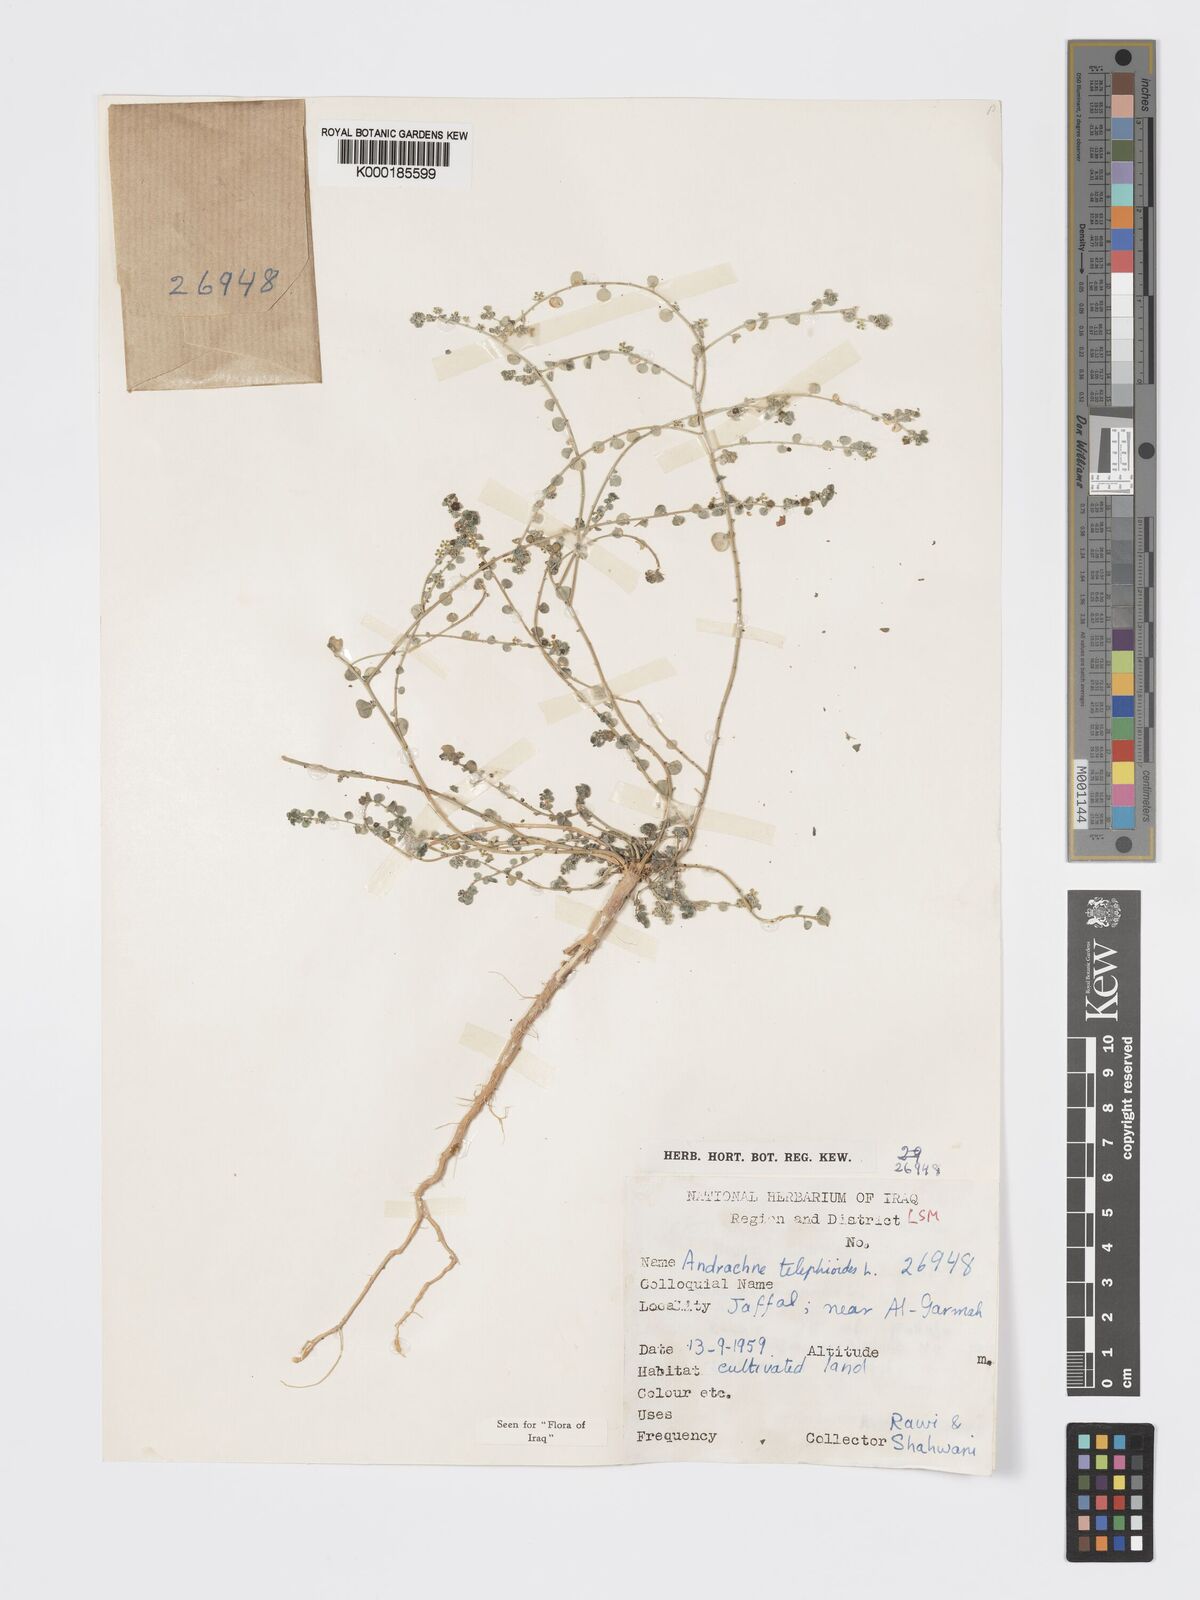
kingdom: Plantae
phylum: Tracheophyta
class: Magnoliopsida
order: Malpighiales
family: Phyllanthaceae
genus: Andrachne
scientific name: Andrachne telephioides
